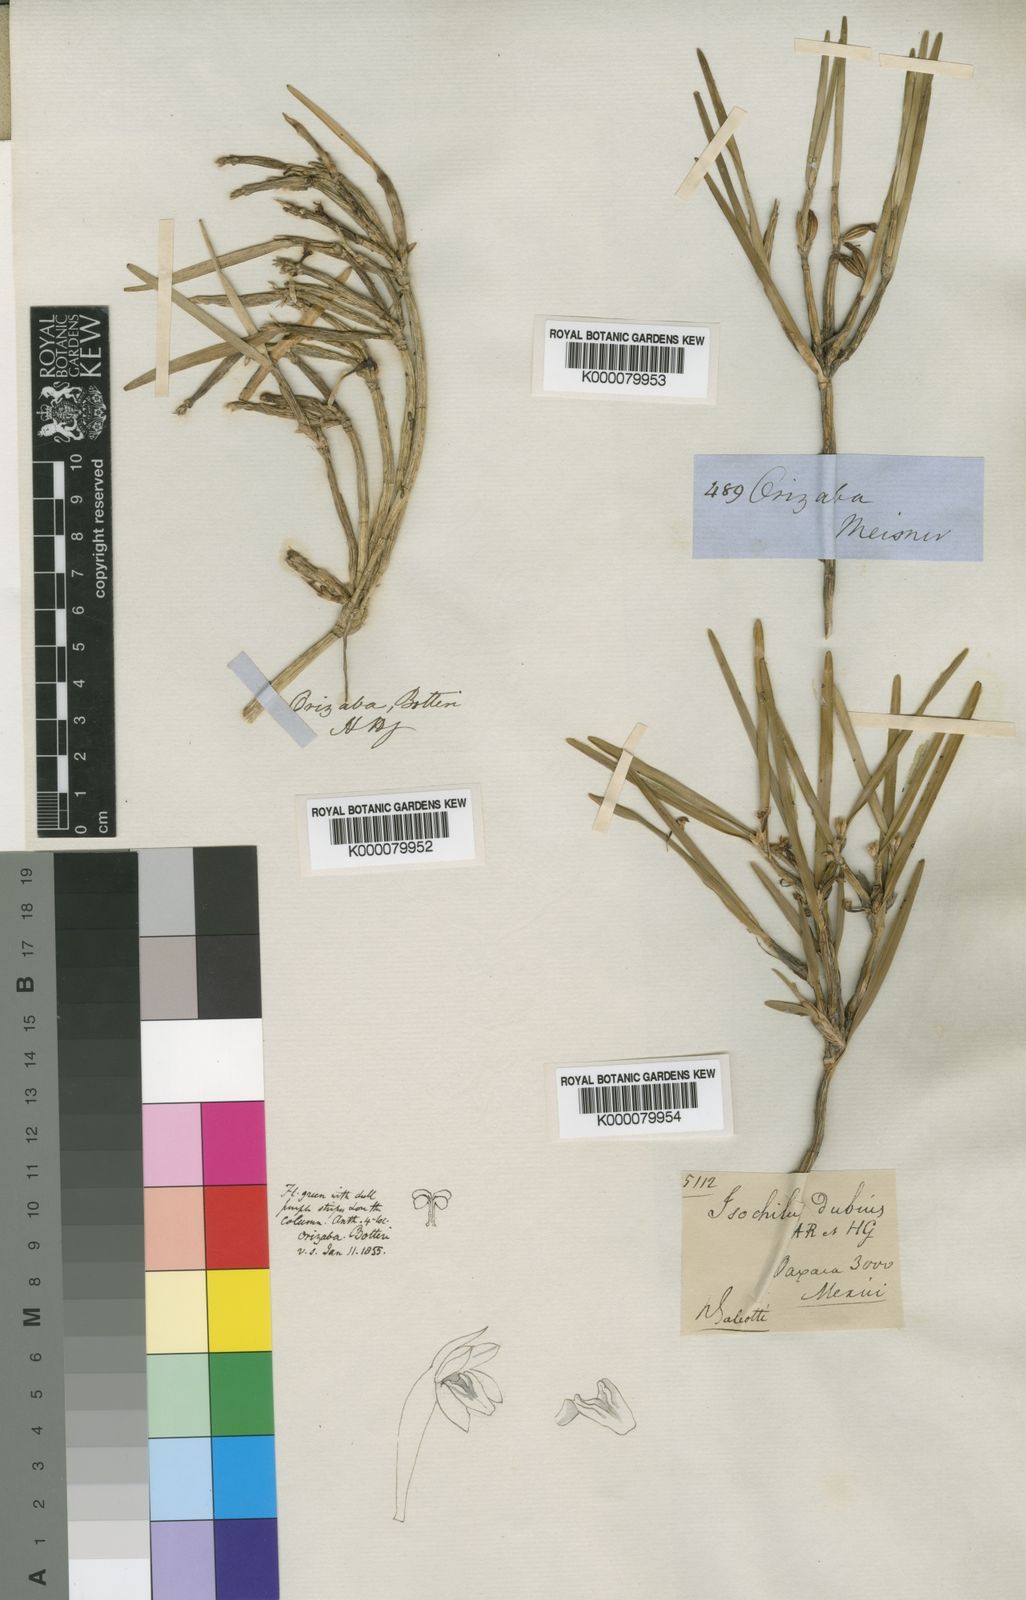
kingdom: Plantae
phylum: Tracheophyta
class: Liliopsida
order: Asparagales
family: Orchidaceae
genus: Scaphyglottis
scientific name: Scaphyglottis livida
